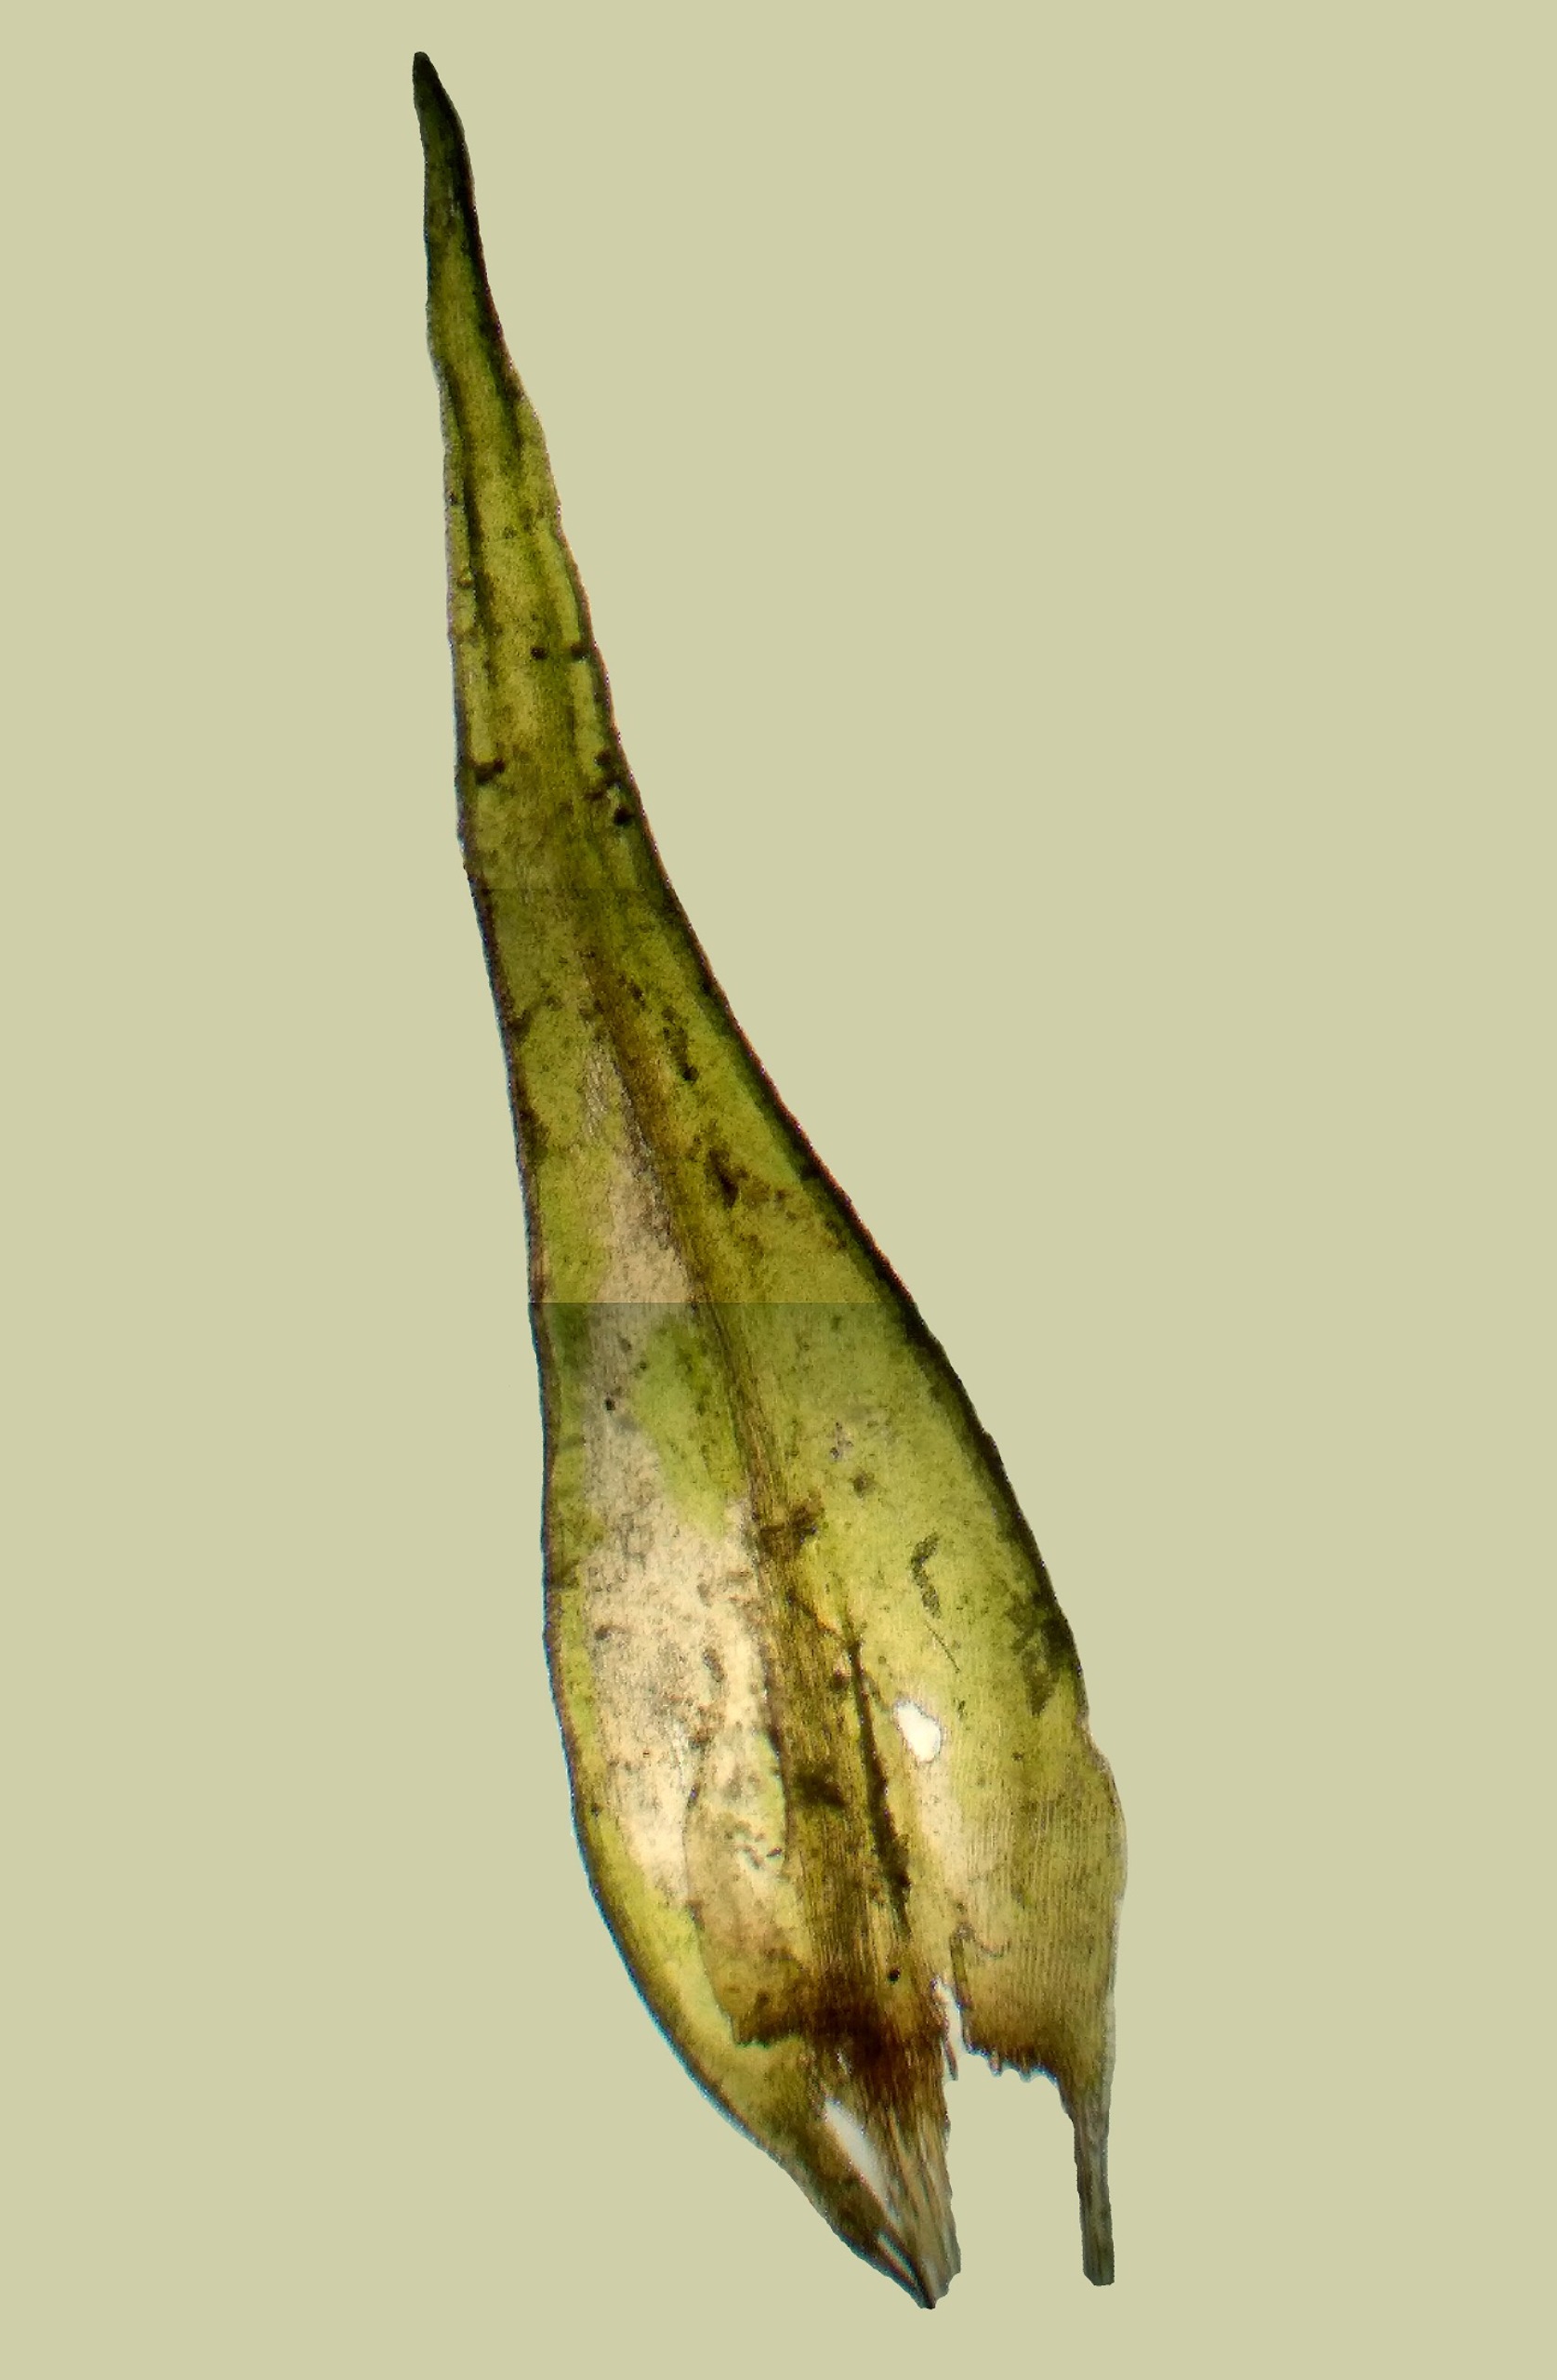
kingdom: Plantae
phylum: Bryophyta
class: Bryopsida
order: Grimmiales
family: Grimmiaceae
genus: Dilutineuron
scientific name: Dilutineuron fasciculare
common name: Knippe-børstemos
